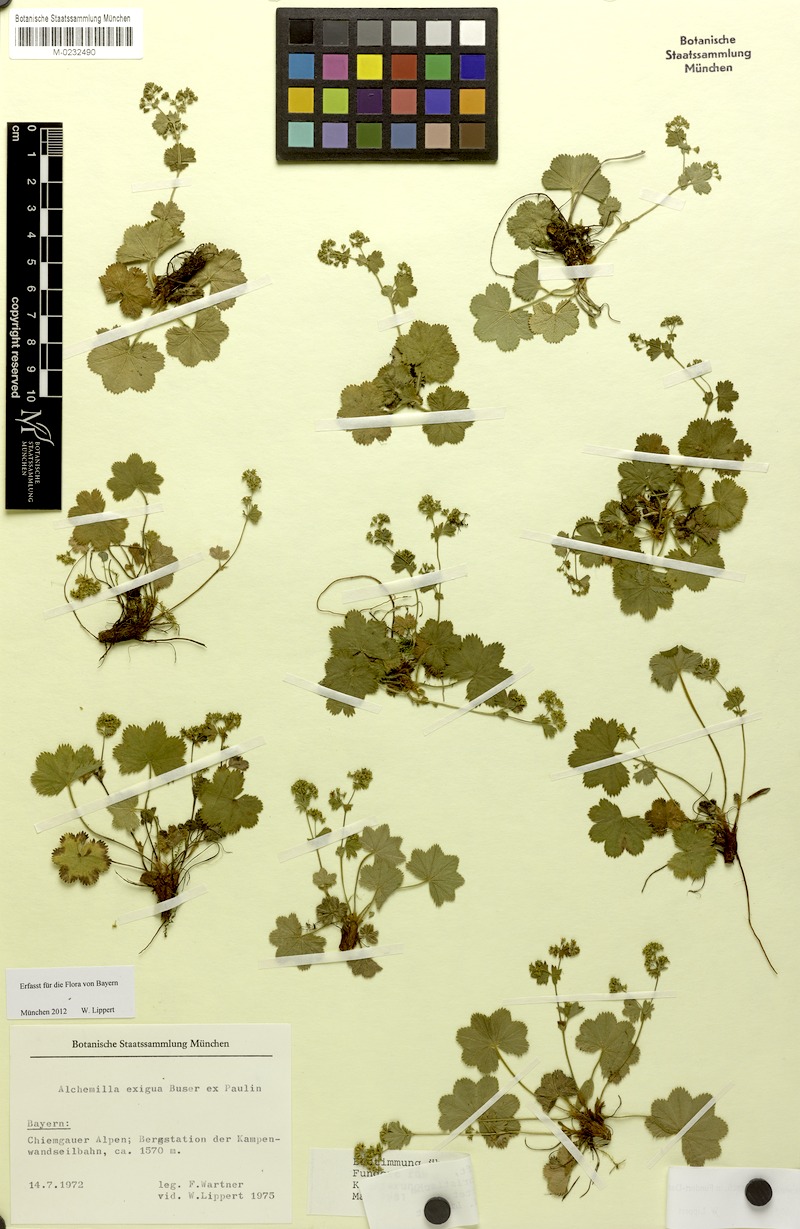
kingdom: Plantae
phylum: Tracheophyta
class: Magnoliopsida
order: Rosales
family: Rosaceae
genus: Alchemilla
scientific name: Alchemilla exigua
